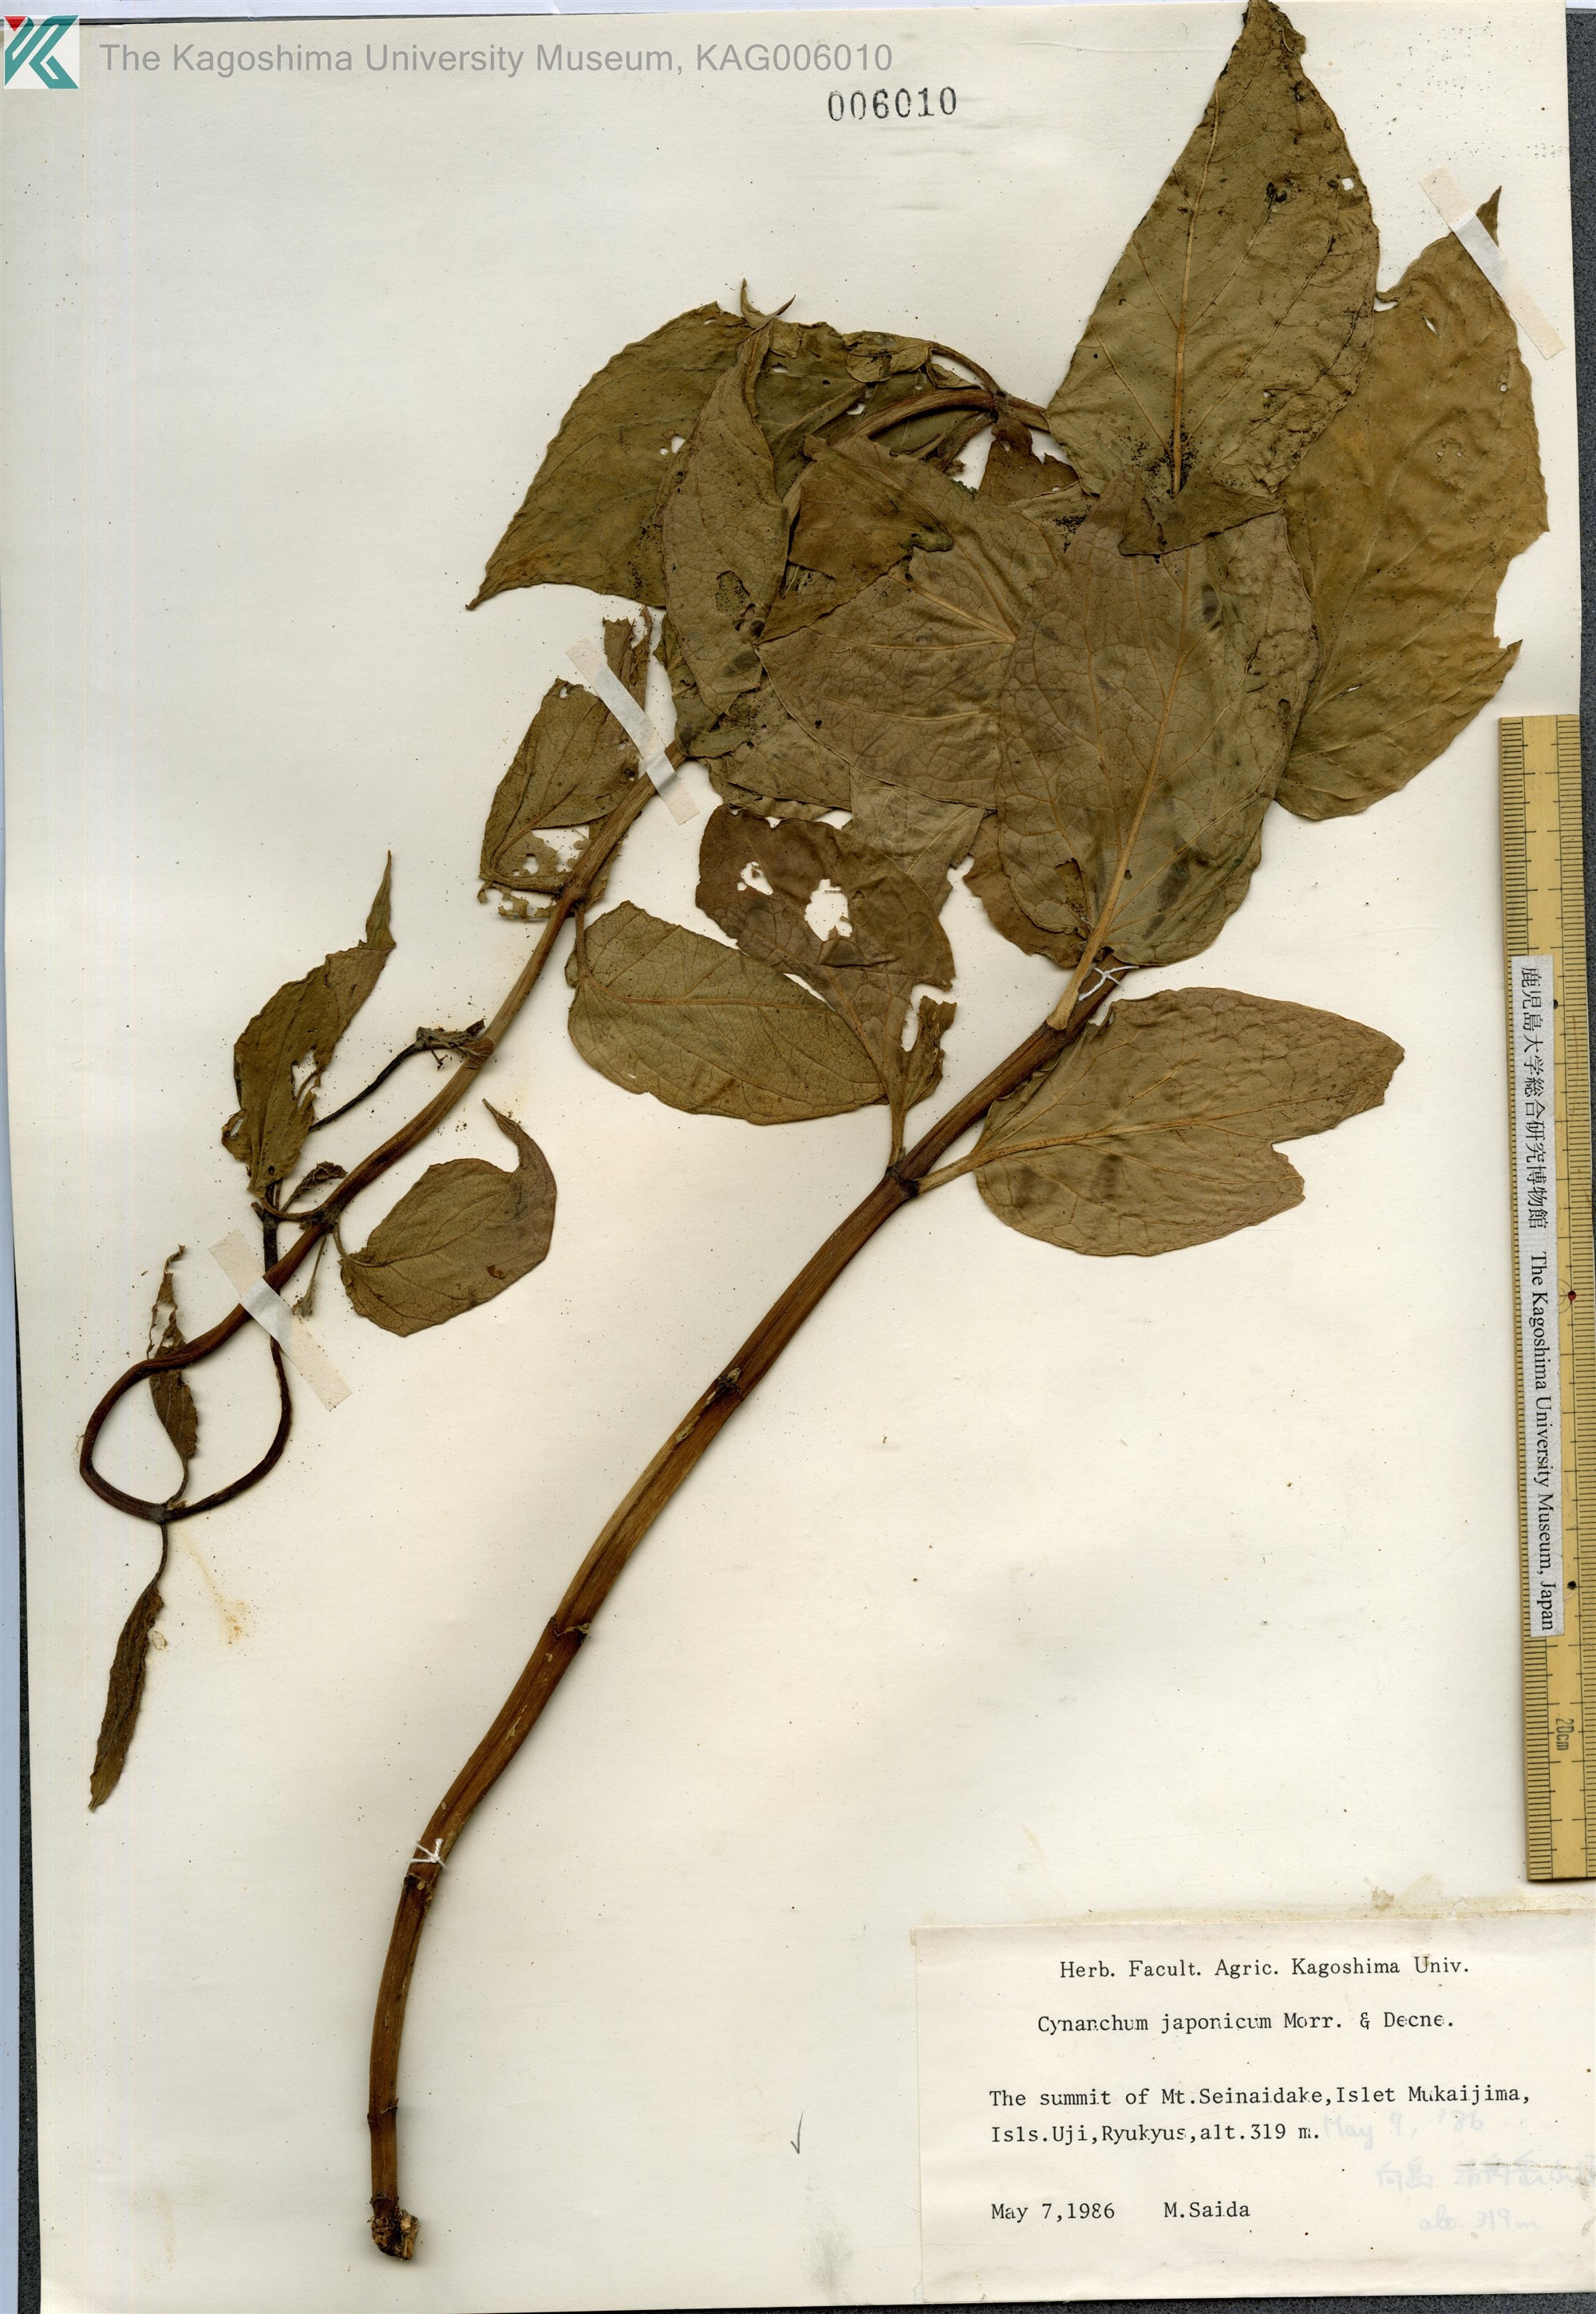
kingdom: Plantae
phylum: Tracheophyta
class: Magnoliopsida
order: Gentianales
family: Apocynaceae
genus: Vincetoxicum
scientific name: Vincetoxicum japonicum
